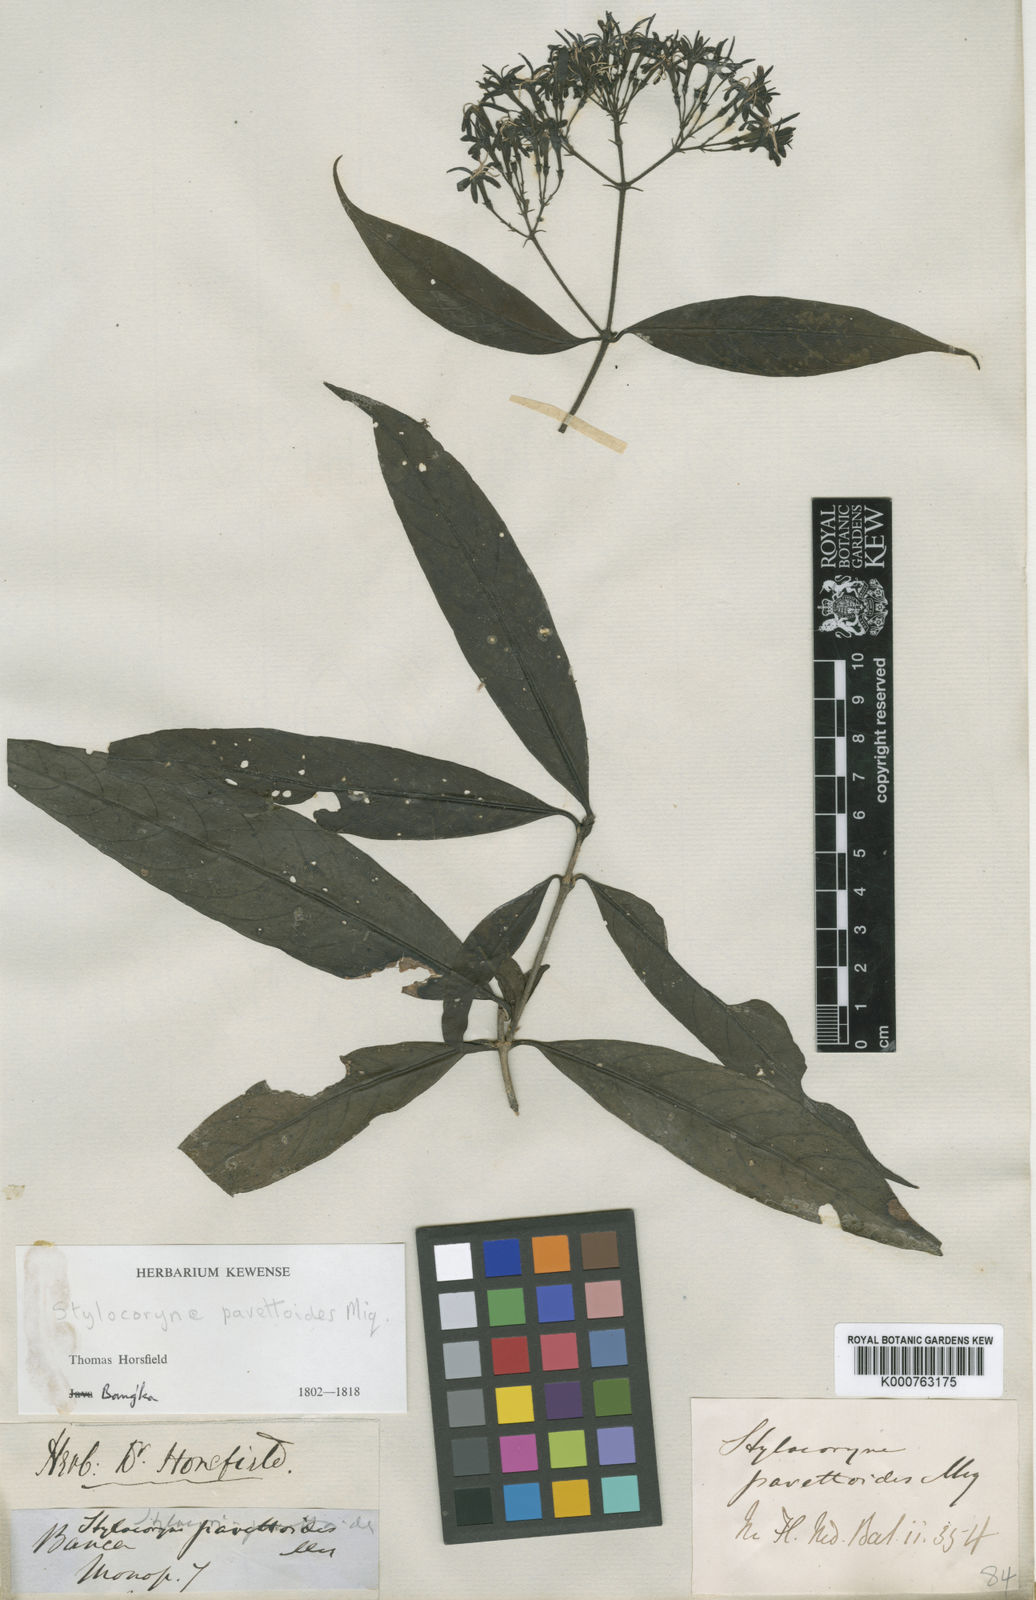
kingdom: Plantae
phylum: Tracheophyta
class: Magnoliopsida
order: Gentianales
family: Rubiaceae
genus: Tarenna
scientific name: Tarenna pavettoides
